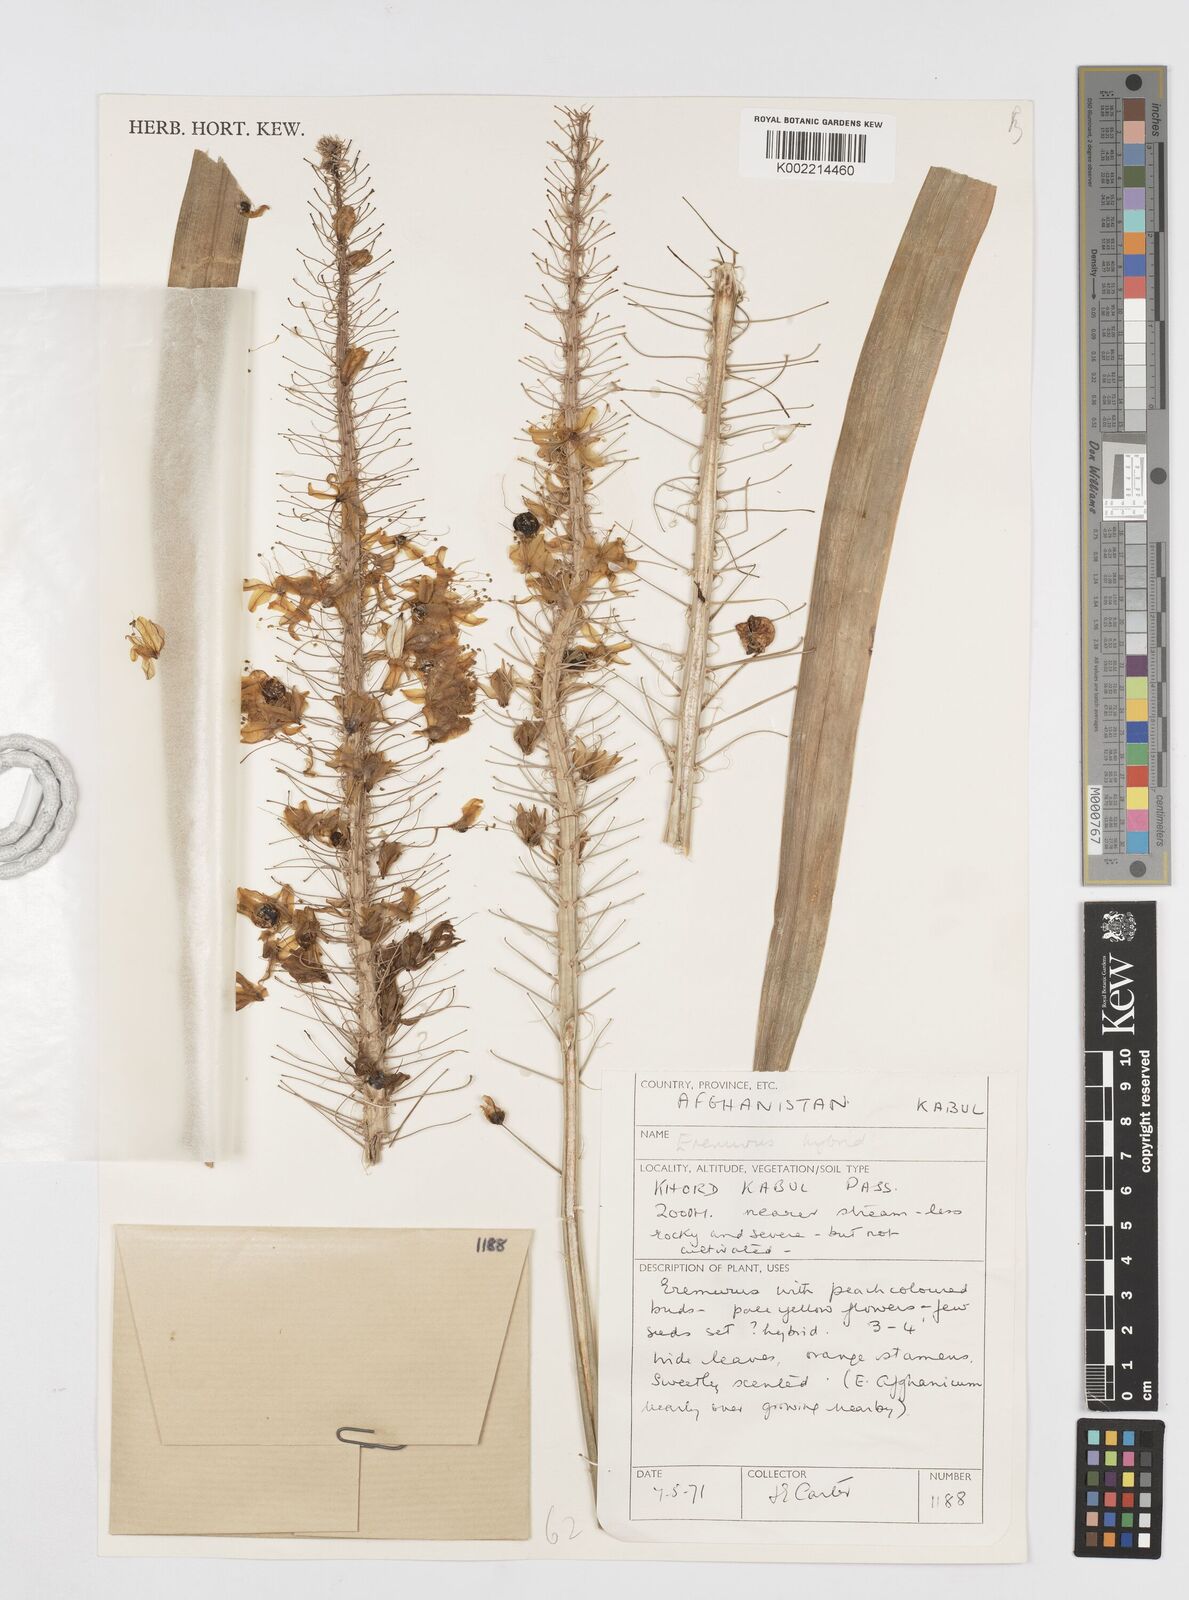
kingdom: Plantae
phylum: Tracheophyta
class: Liliopsida
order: Asparagales
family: Asphodelaceae
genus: Eremurus
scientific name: Eremurus
